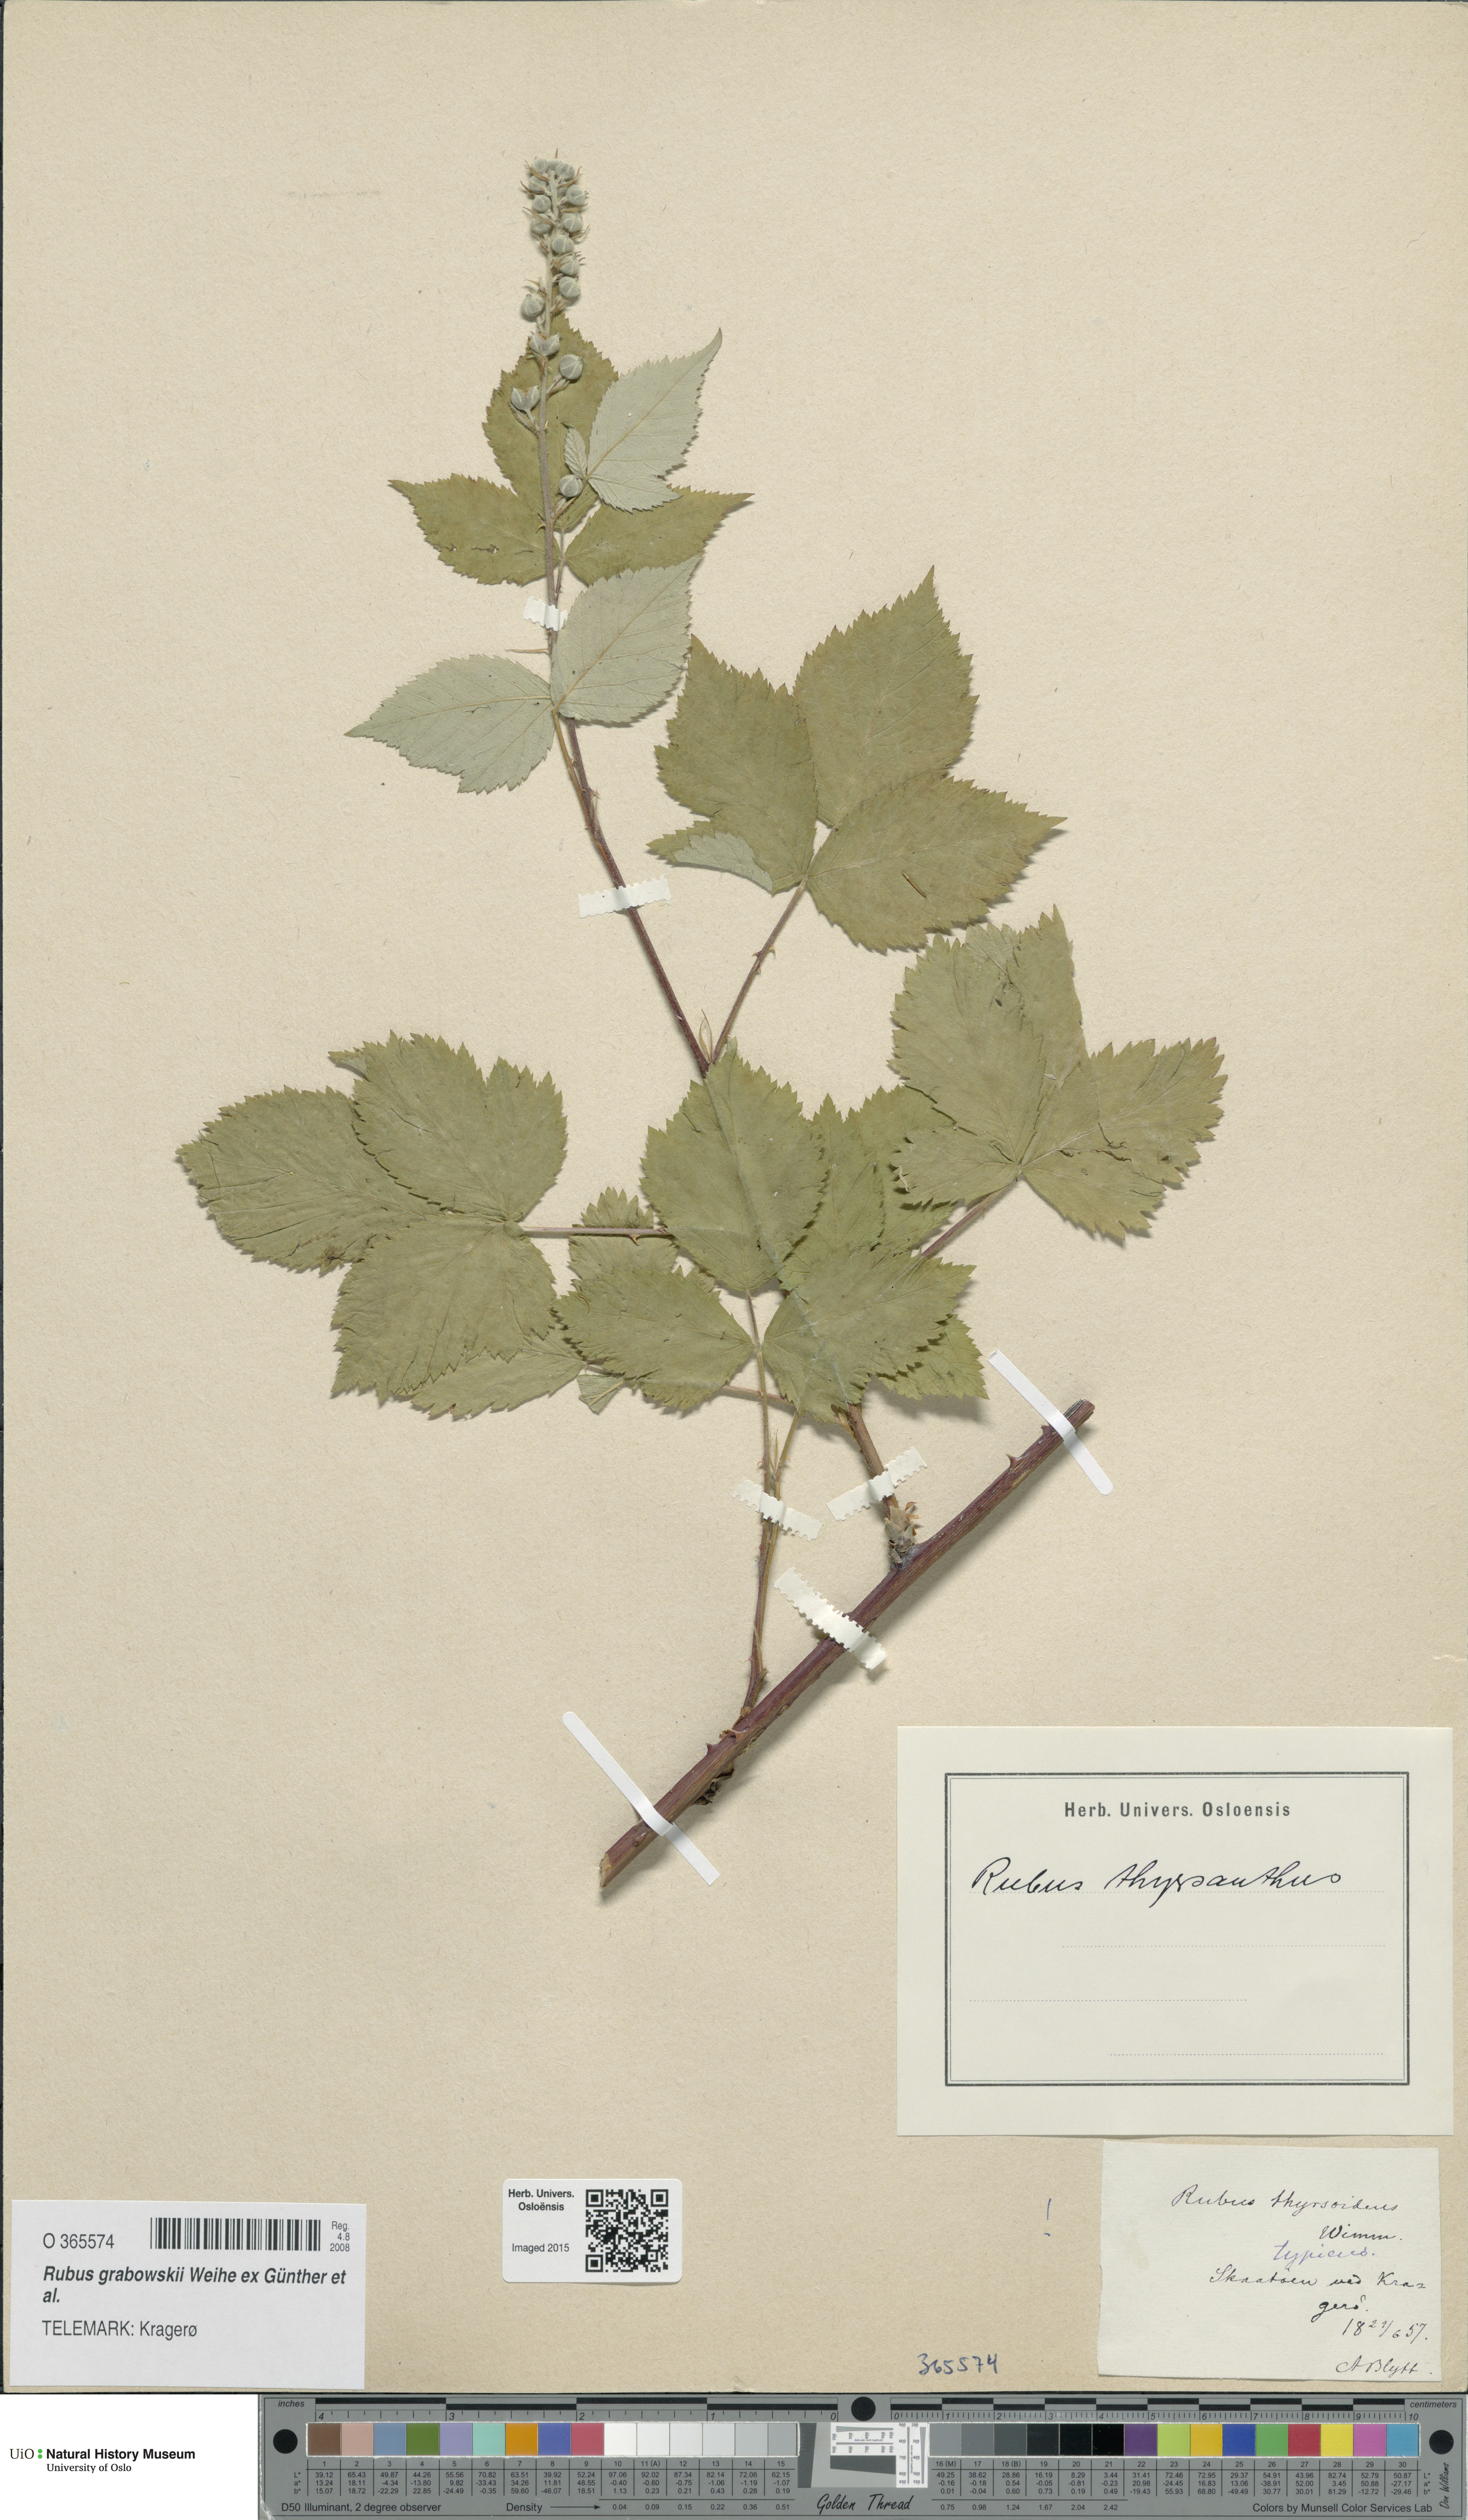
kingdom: Plantae
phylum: Tracheophyta
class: Magnoliopsida
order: Rosales
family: Rosaceae
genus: Rubus
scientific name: Rubus grabowskii
